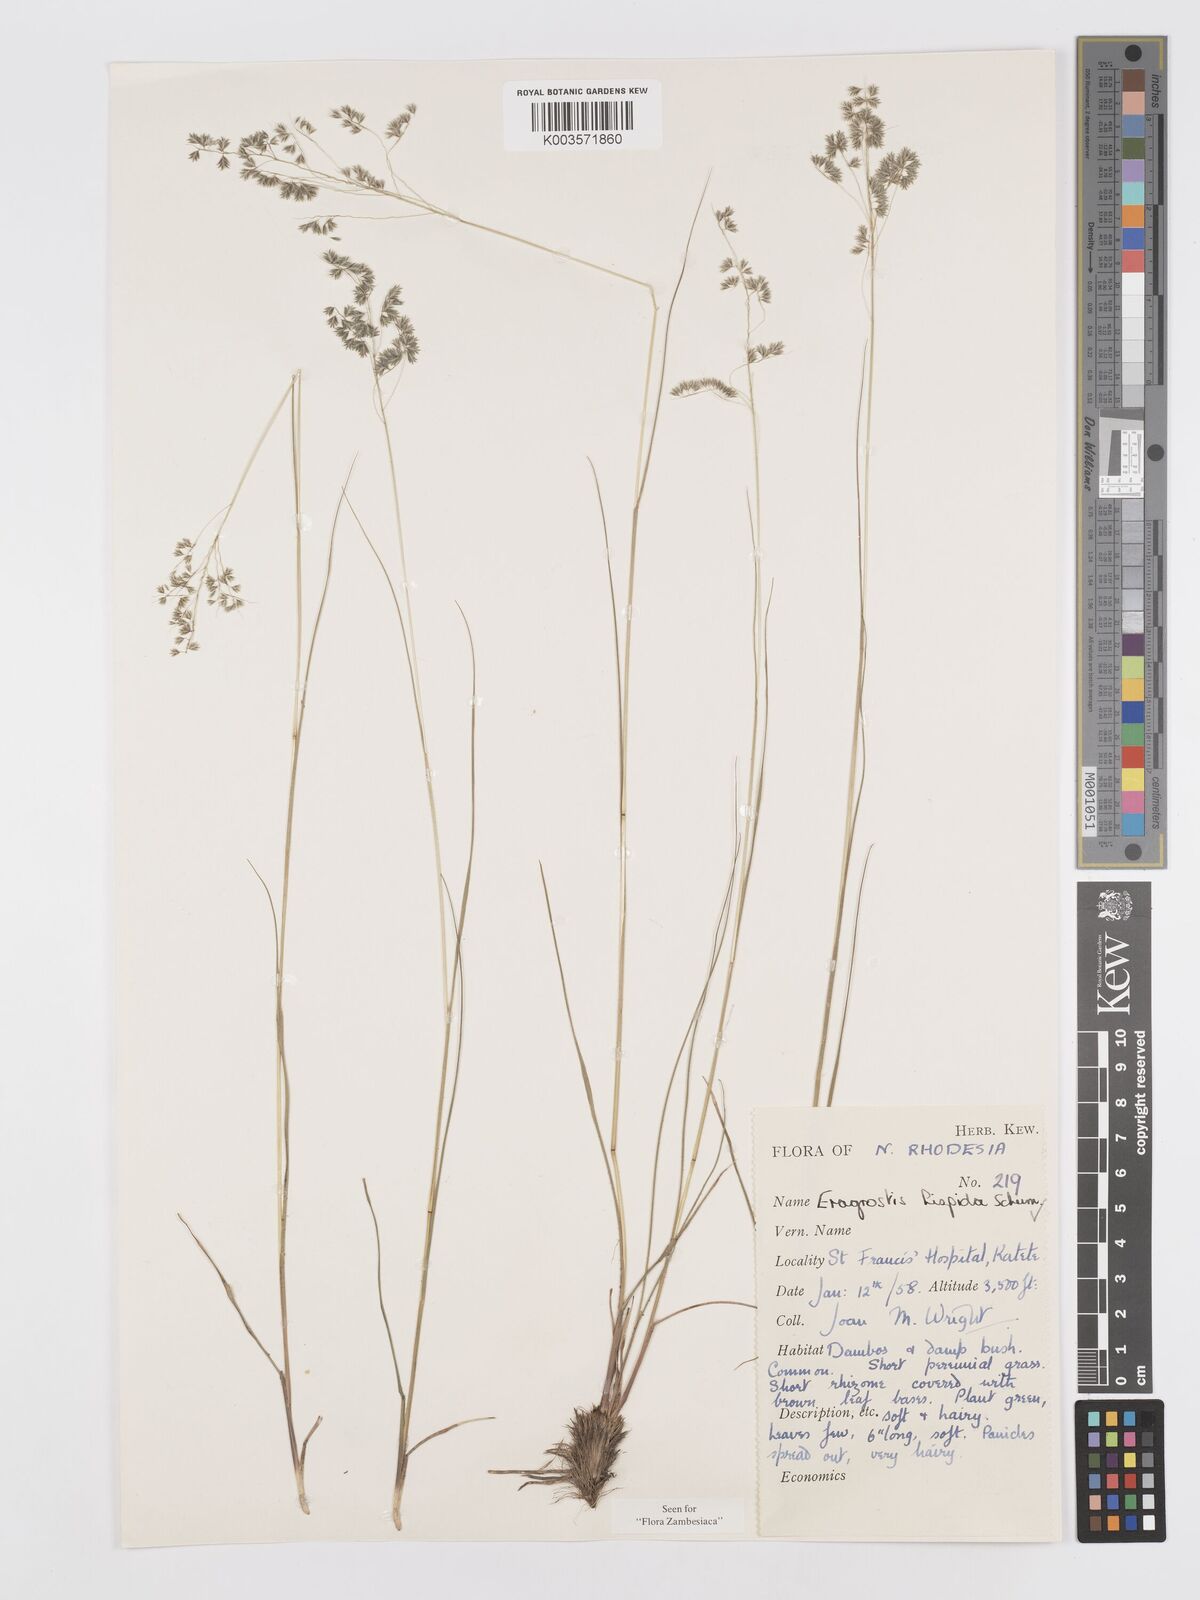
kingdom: Plantae
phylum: Tracheophyta
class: Liliopsida
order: Poales
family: Poaceae
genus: Eragrostis
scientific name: Eragrostis hispida
